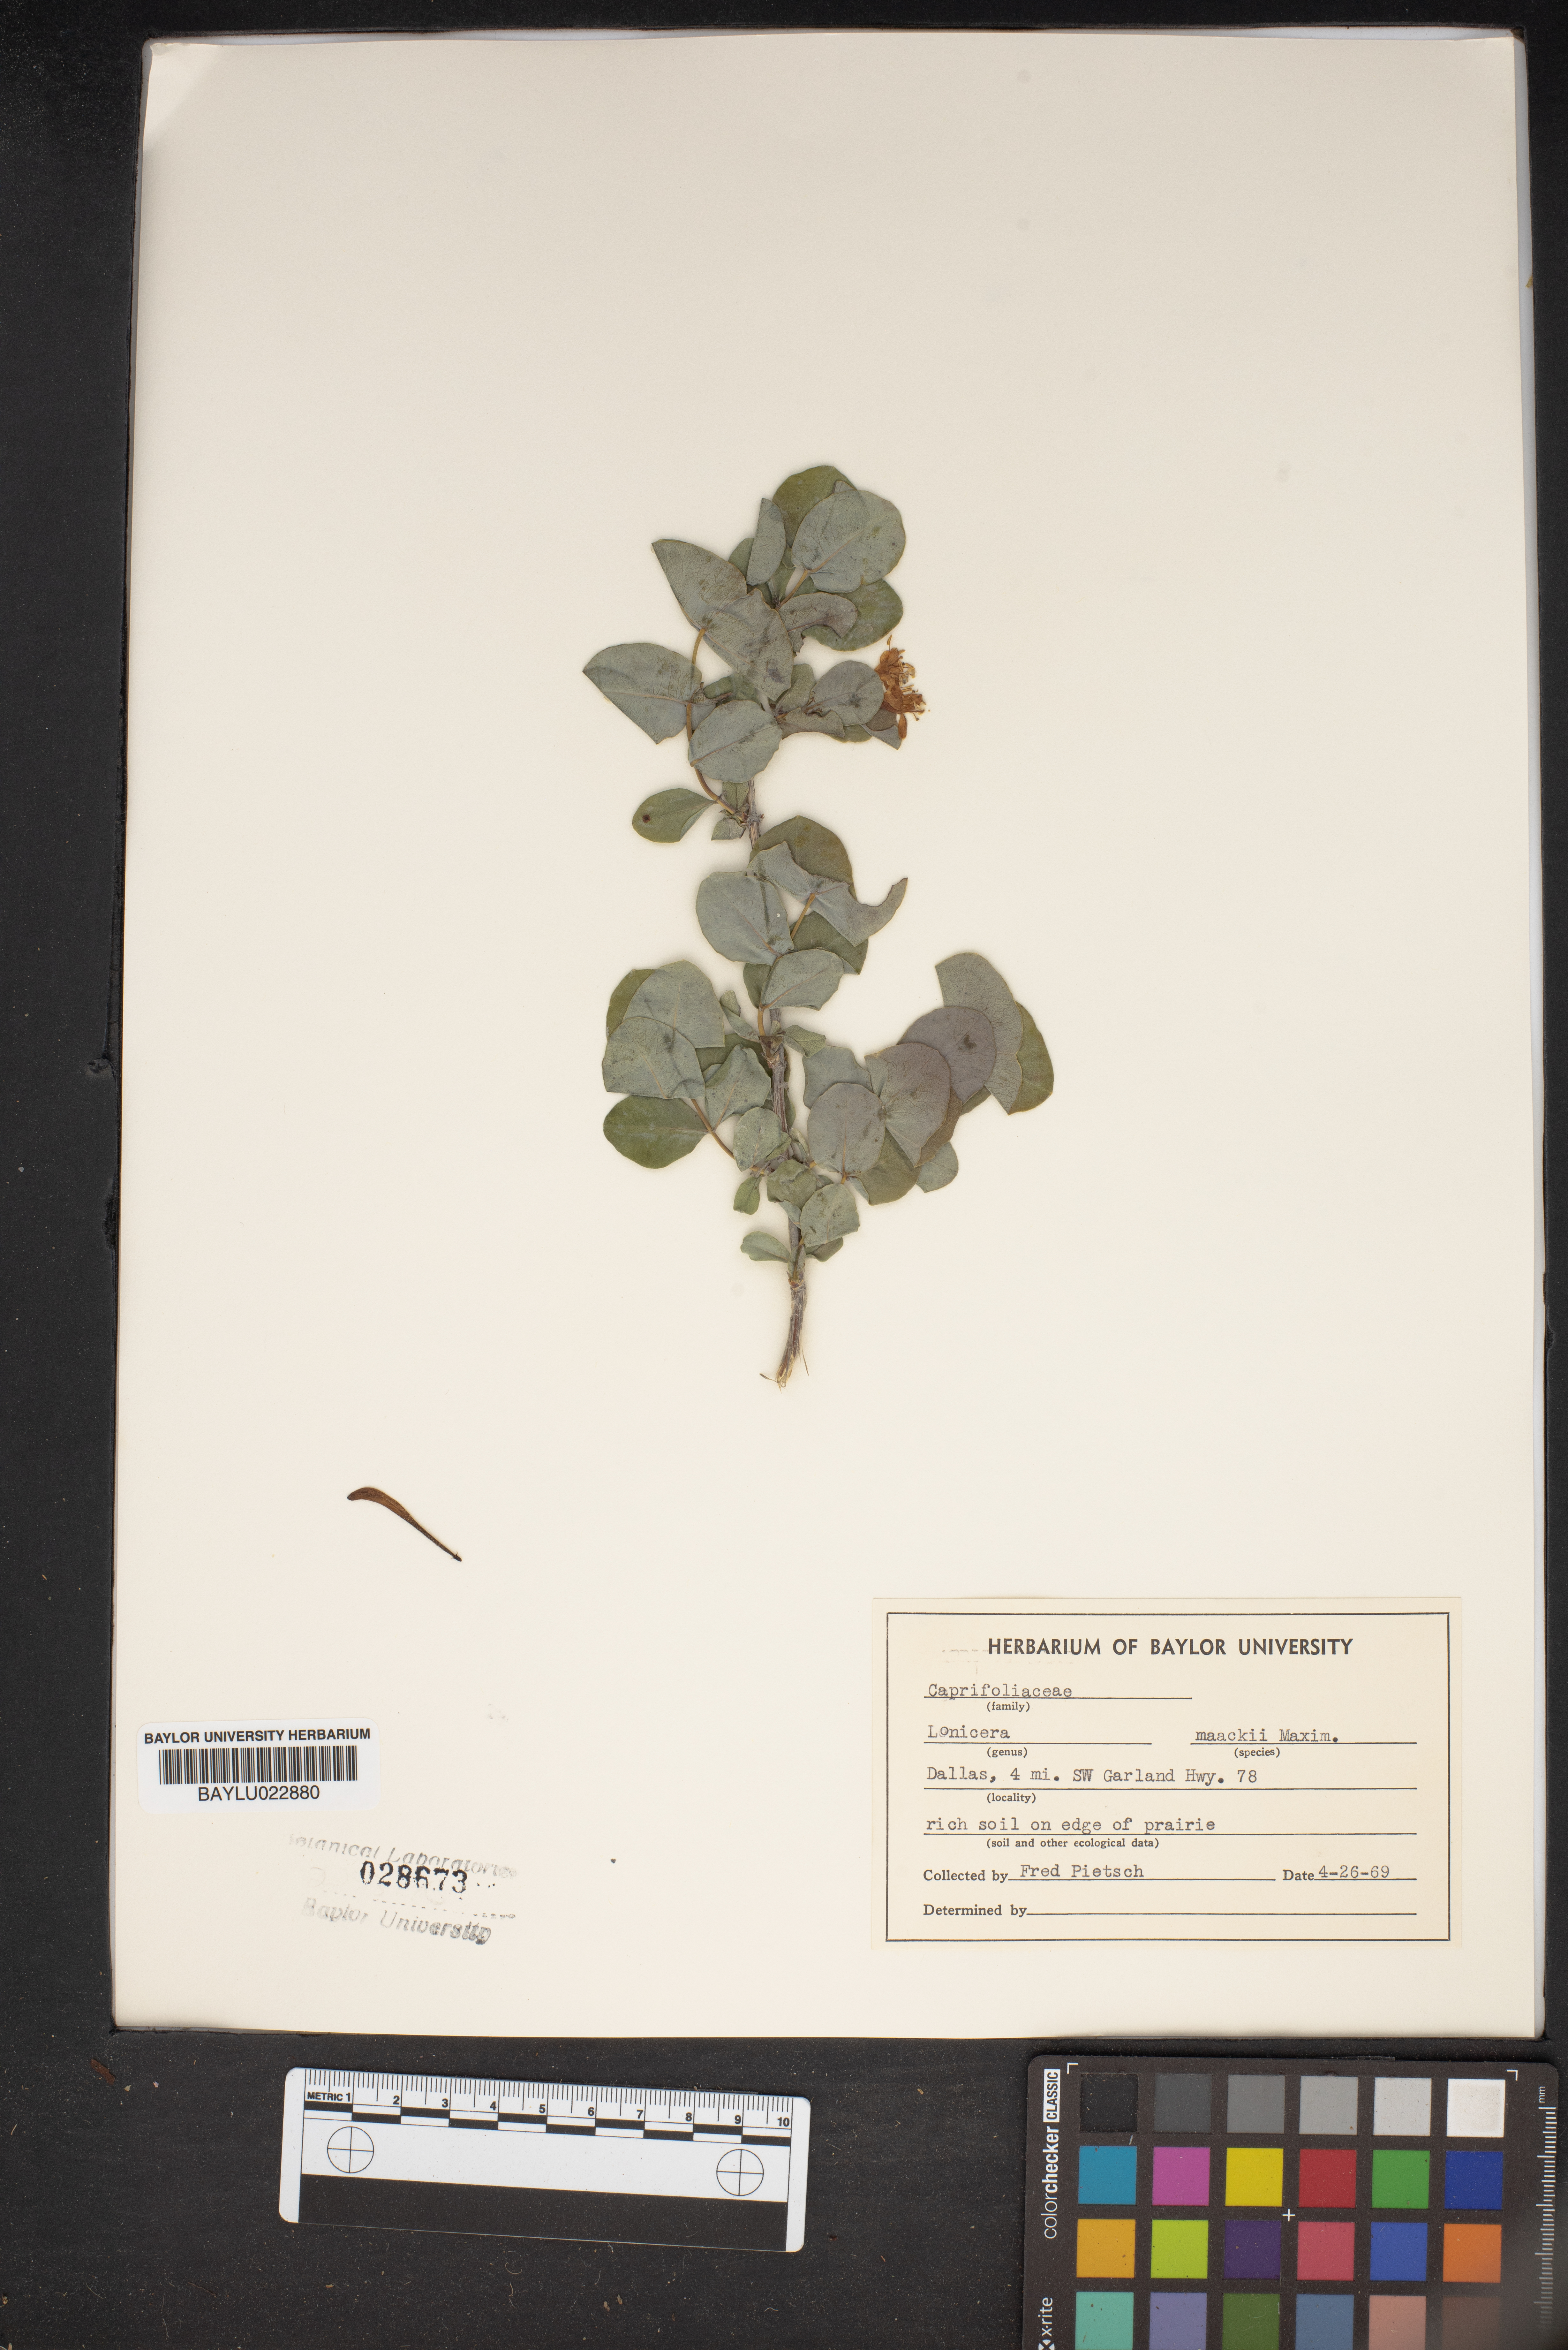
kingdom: Plantae
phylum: Tracheophyta
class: Magnoliopsida
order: Dipsacales
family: Caprifoliaceae
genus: Lonicera
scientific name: Lonicera maackii
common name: Amur honeysuckle
